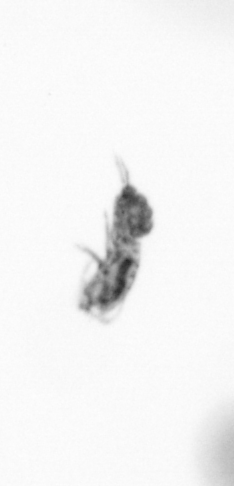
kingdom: Animalia
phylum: Arthropoda
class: Copepoda
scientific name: Copepoda
